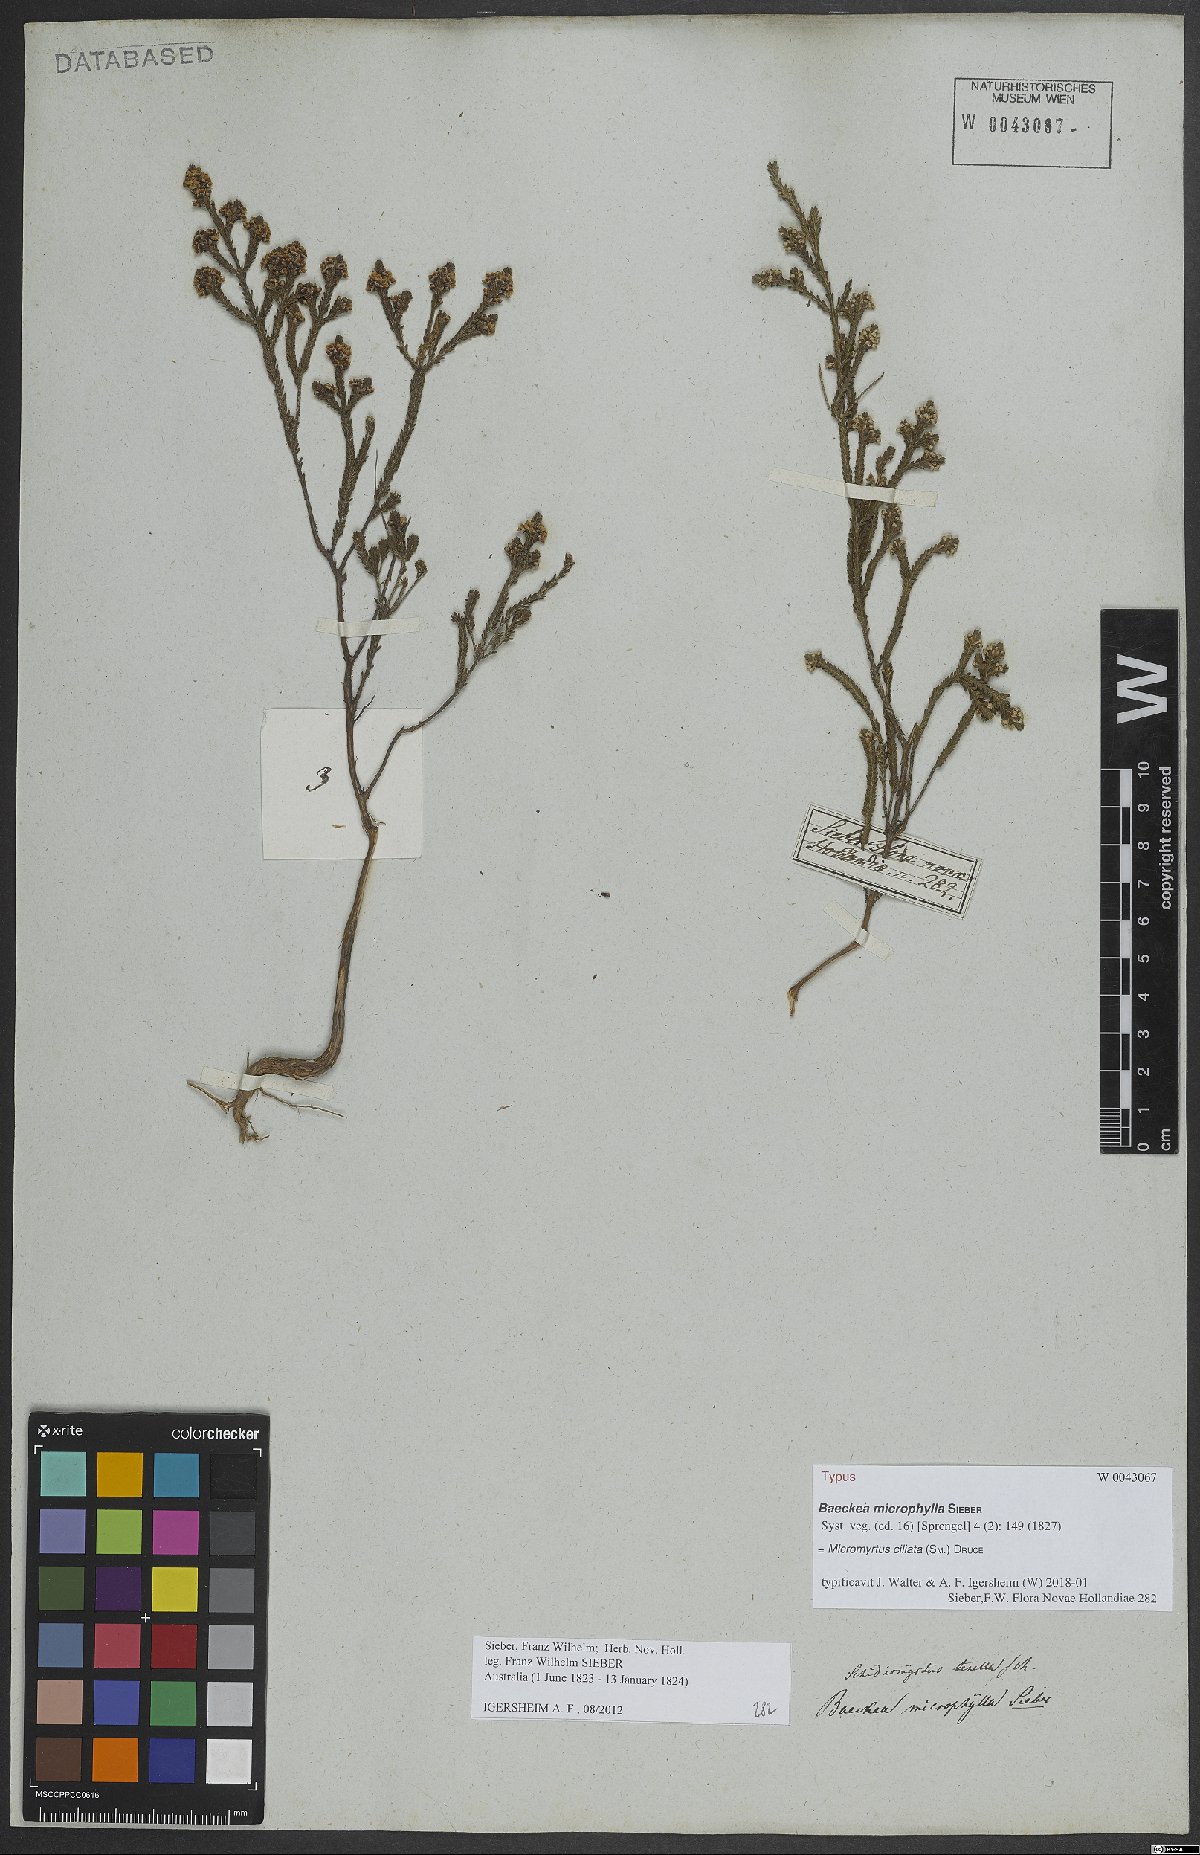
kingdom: Plantae
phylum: Tracheophyta
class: Magnoliopsida
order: Myrtales
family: Myrtaceae
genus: Micromyrtus
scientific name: Micromyrtus ciliata
